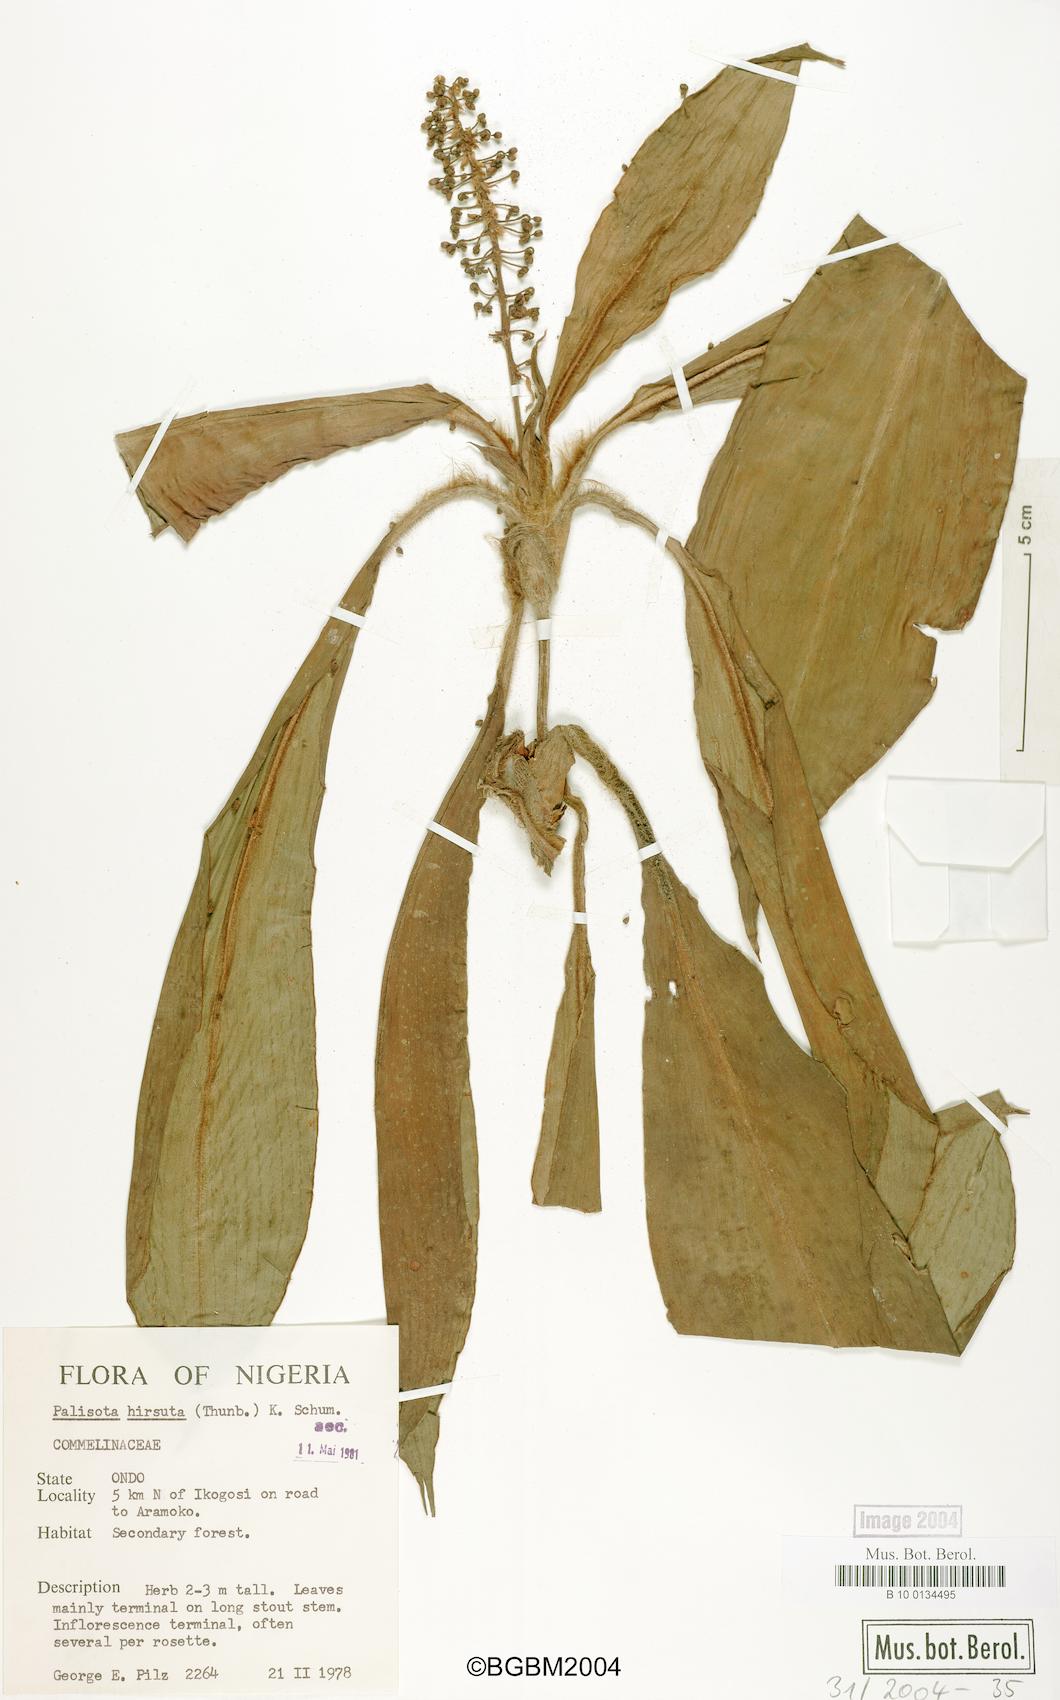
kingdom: Plantae
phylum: Tracheophyta
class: Liliopsida
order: Commelinales
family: Commelinaceae
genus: Palisota
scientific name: Palisota hirsuta
